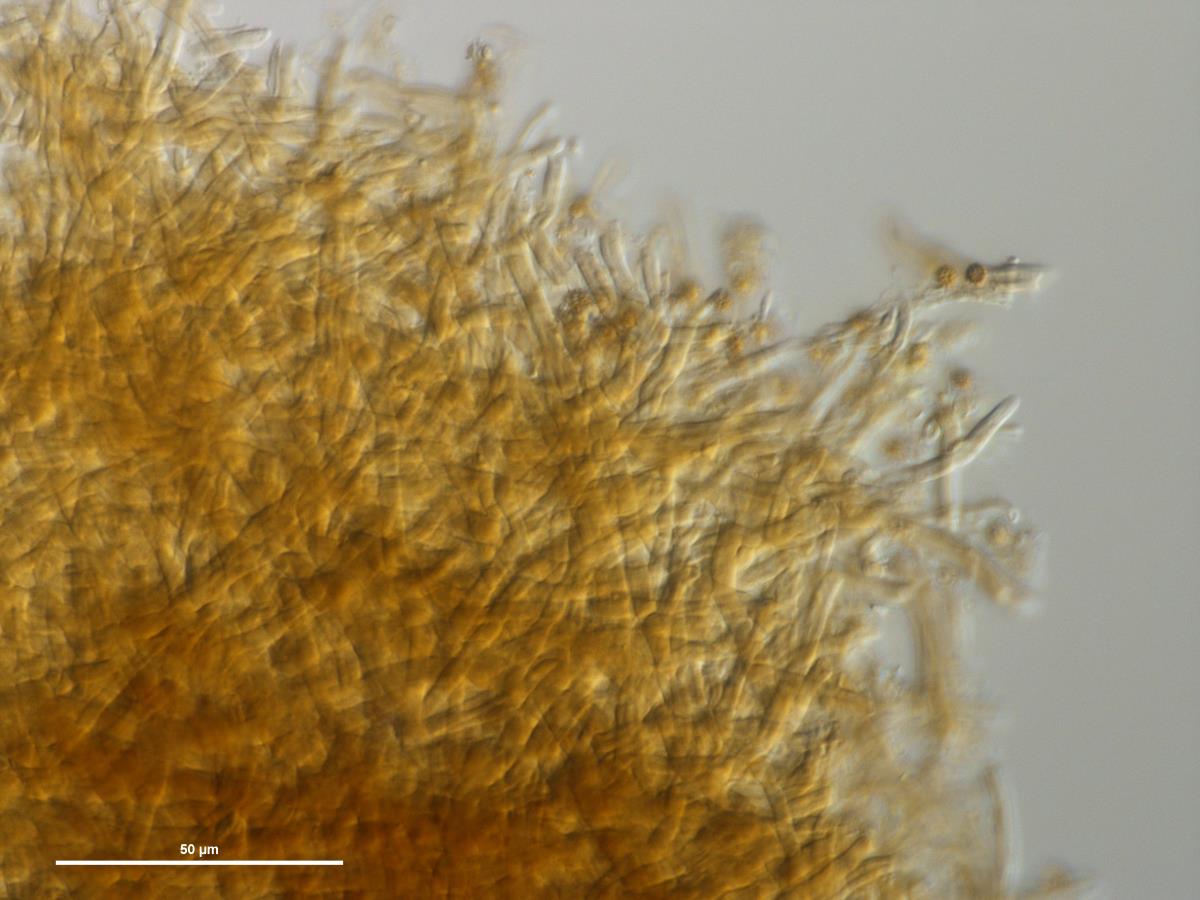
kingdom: Fungi
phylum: Basidiomycota
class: Agaricomycetes
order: Geastrales
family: Geastraceae
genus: Geastrum
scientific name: Geastrum
